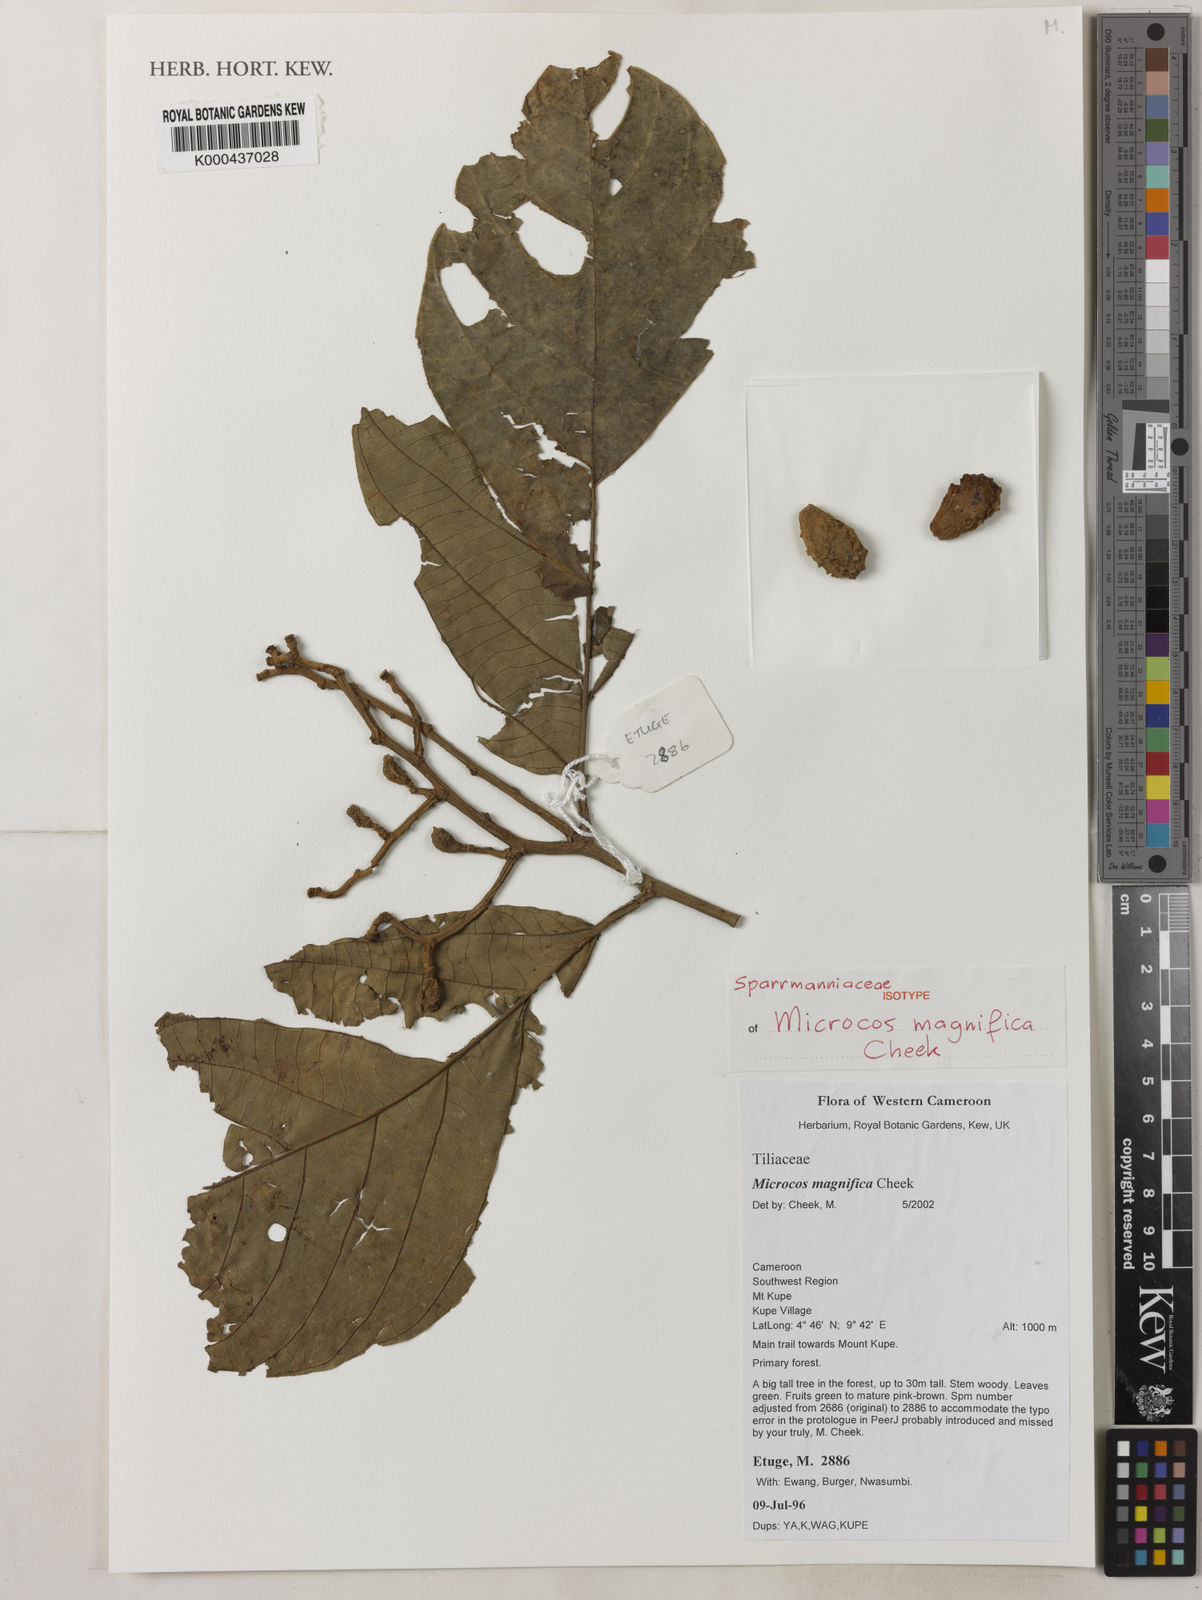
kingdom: Plantae
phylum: Tracheophyta
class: Magnoliopsida
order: Malvales
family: Malvaceae
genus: Microcos
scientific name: Microcos magnifica
